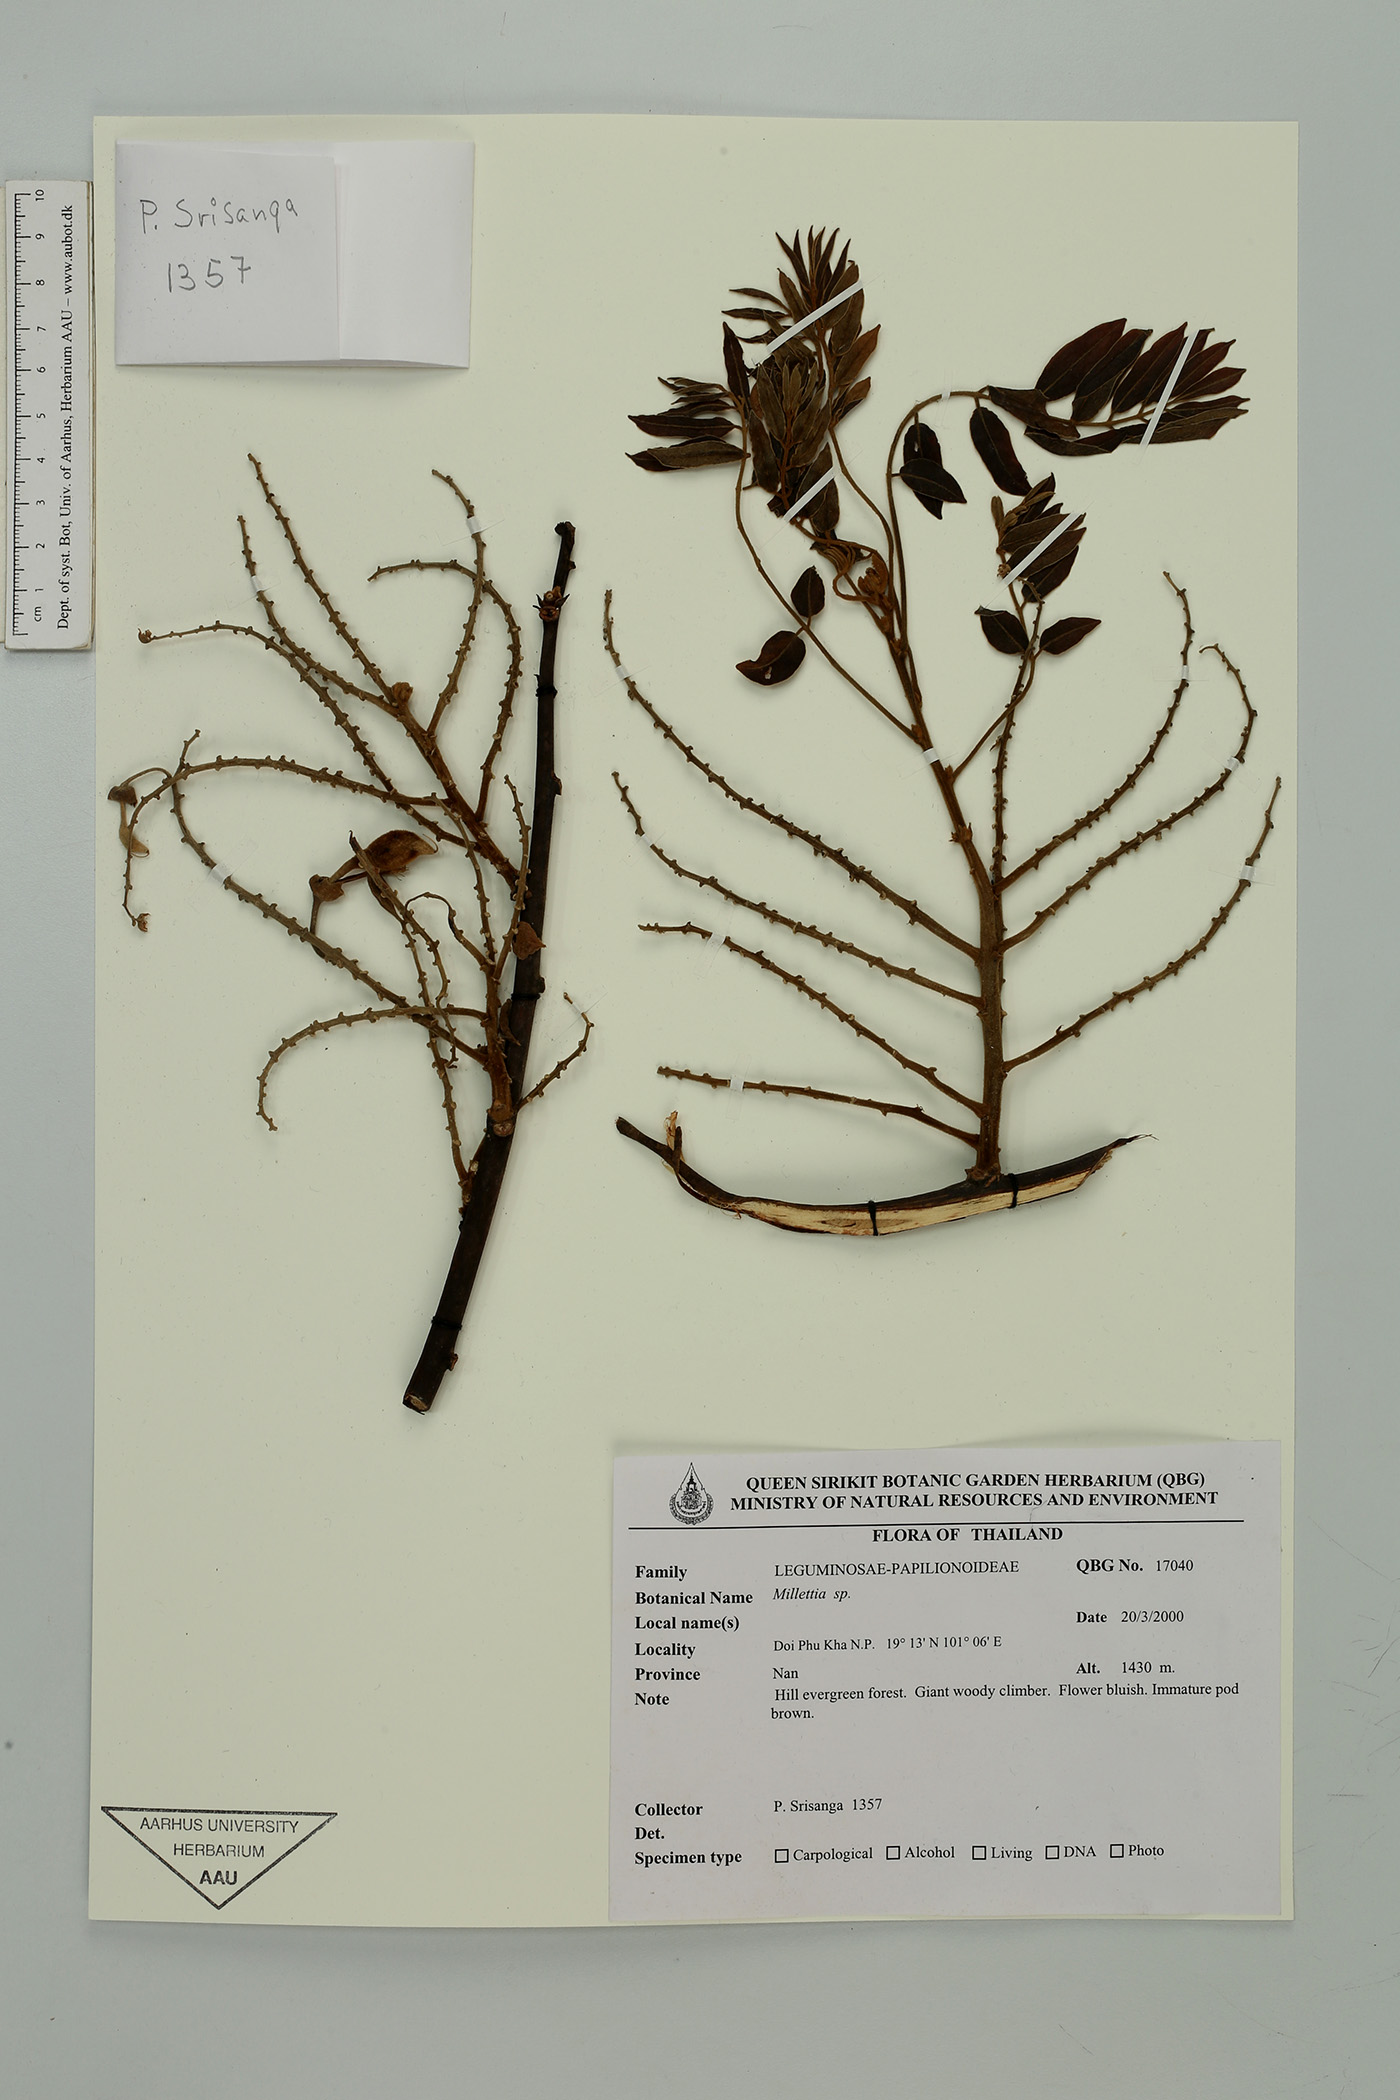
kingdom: Plantae
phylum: Tracheophyta
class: Magnoliopsida
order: Fabales
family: Fabaceae
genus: Millettia
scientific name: Millettia
